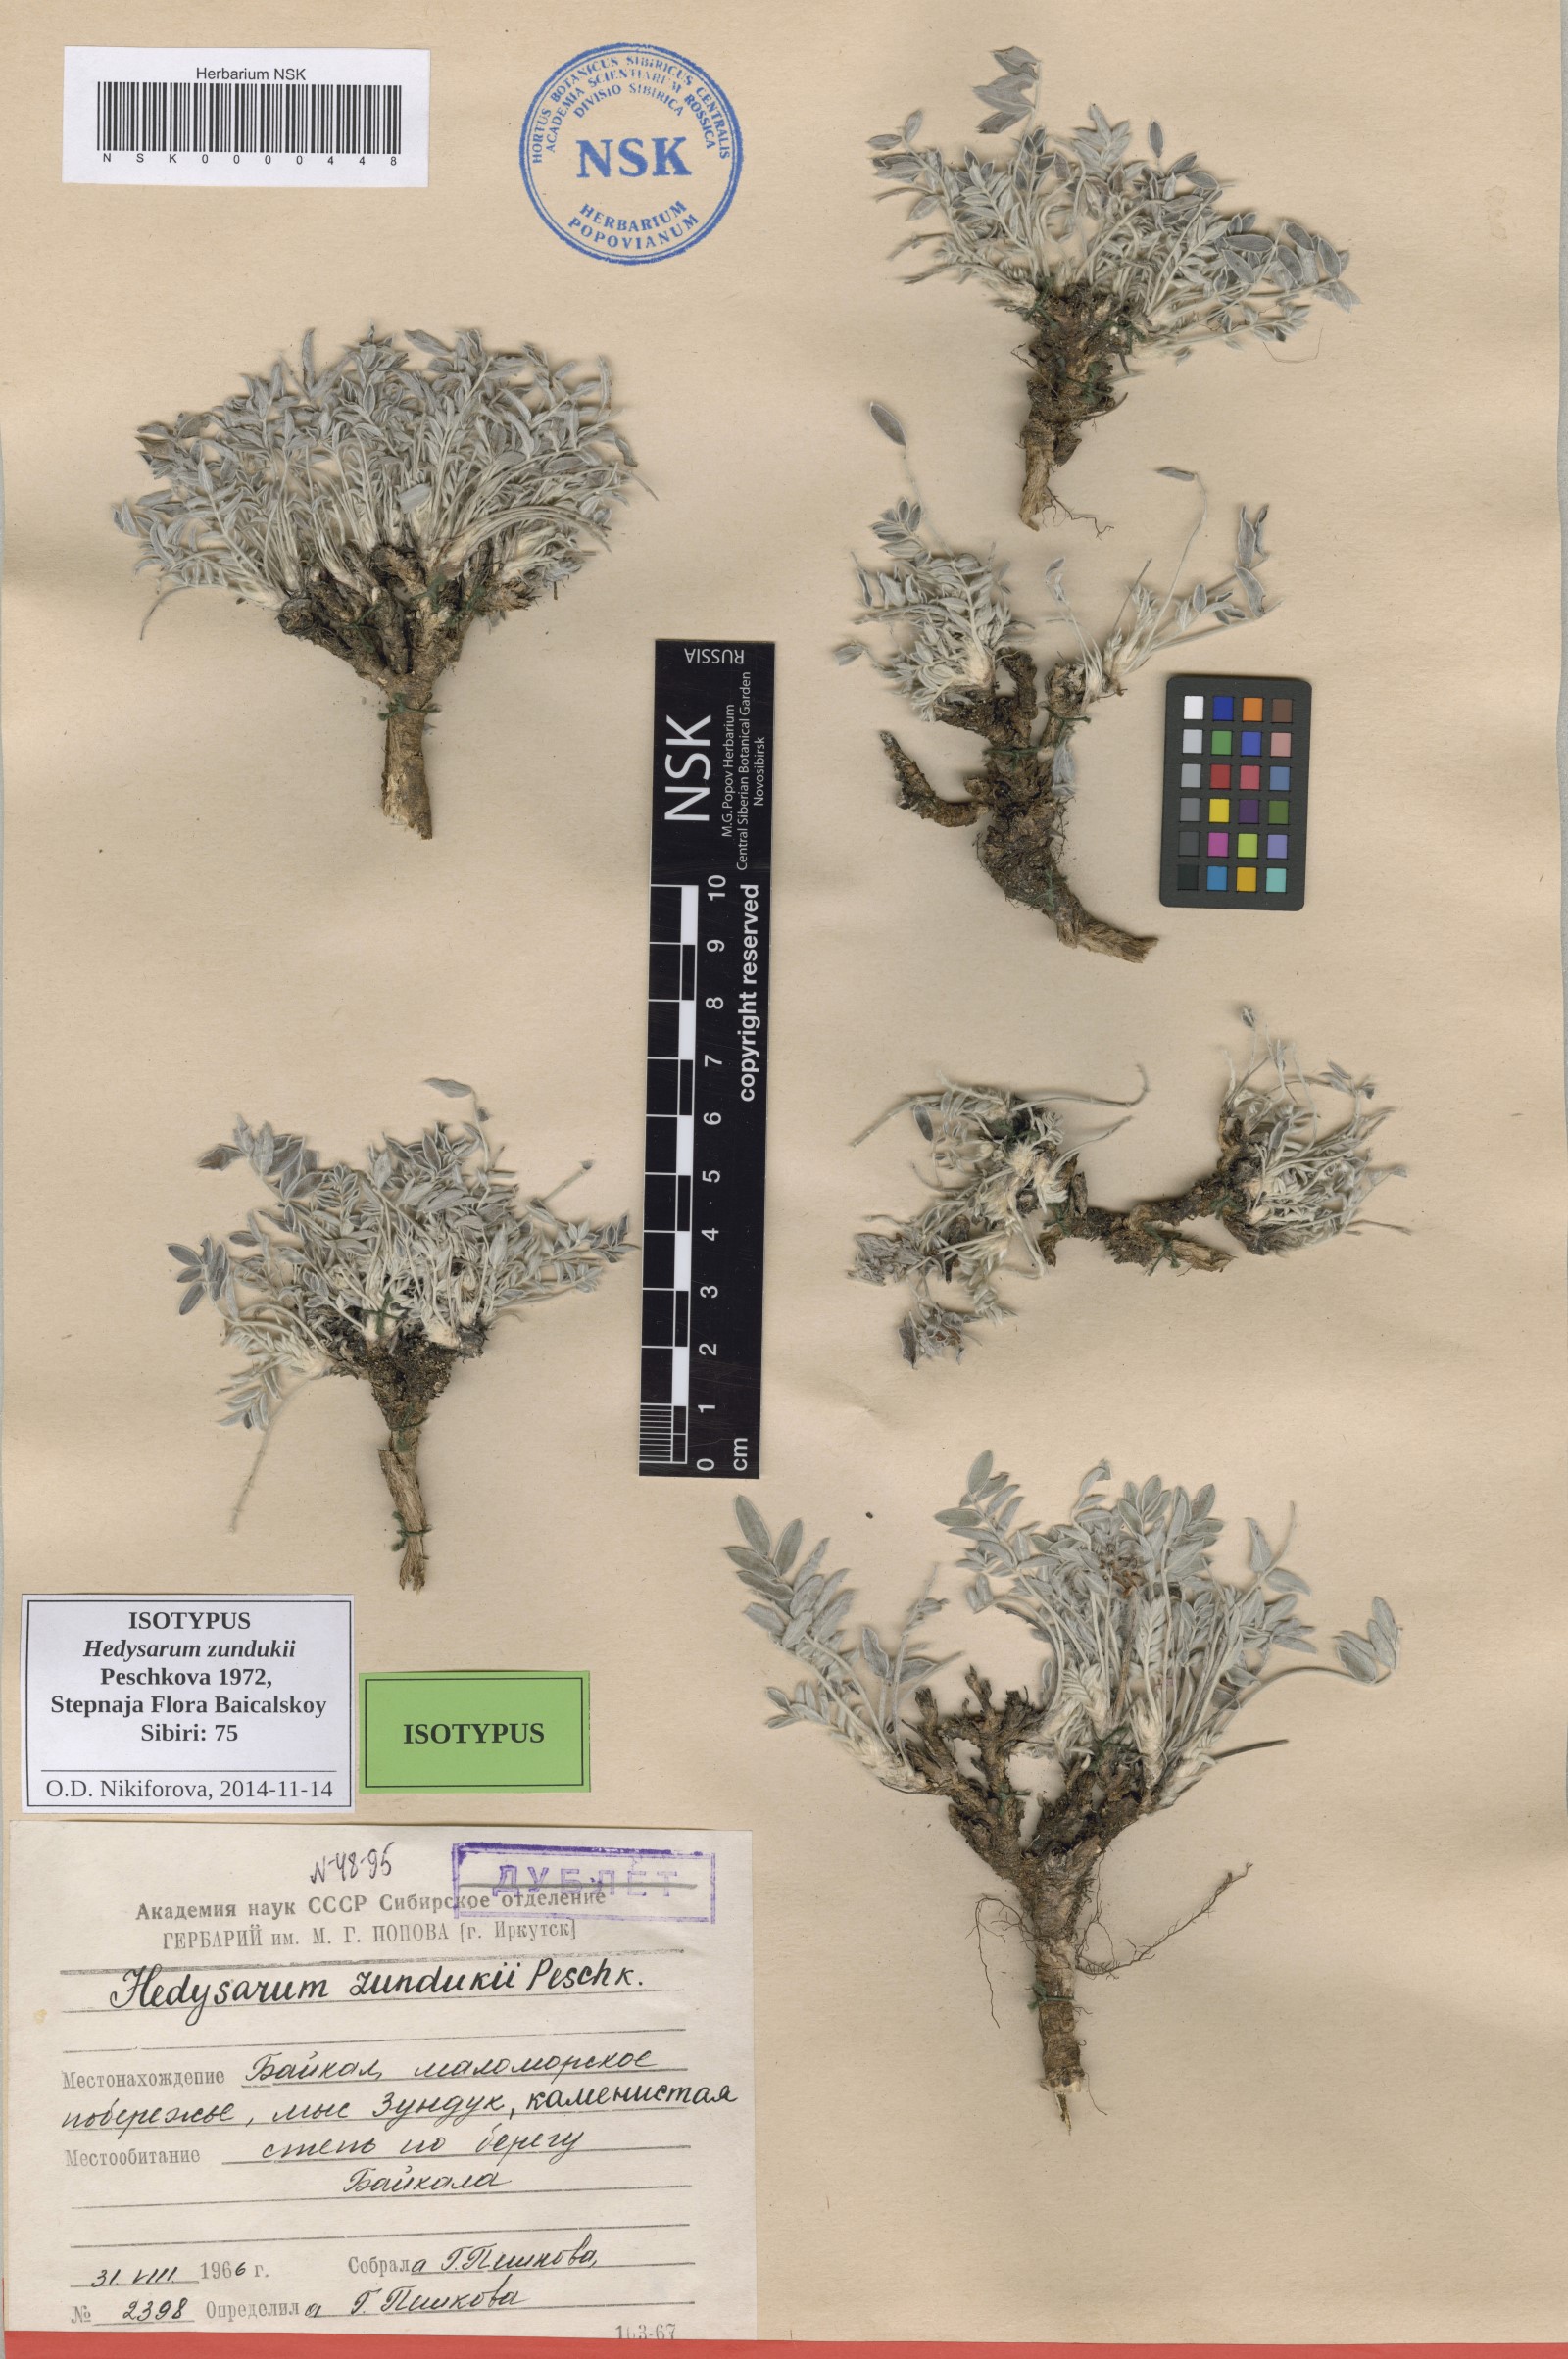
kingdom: Plantae
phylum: Tracheophyta
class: Magnoliopsida
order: Fabales
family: Fabaceae
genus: Hedysarum
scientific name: Hedysarum zundukii
